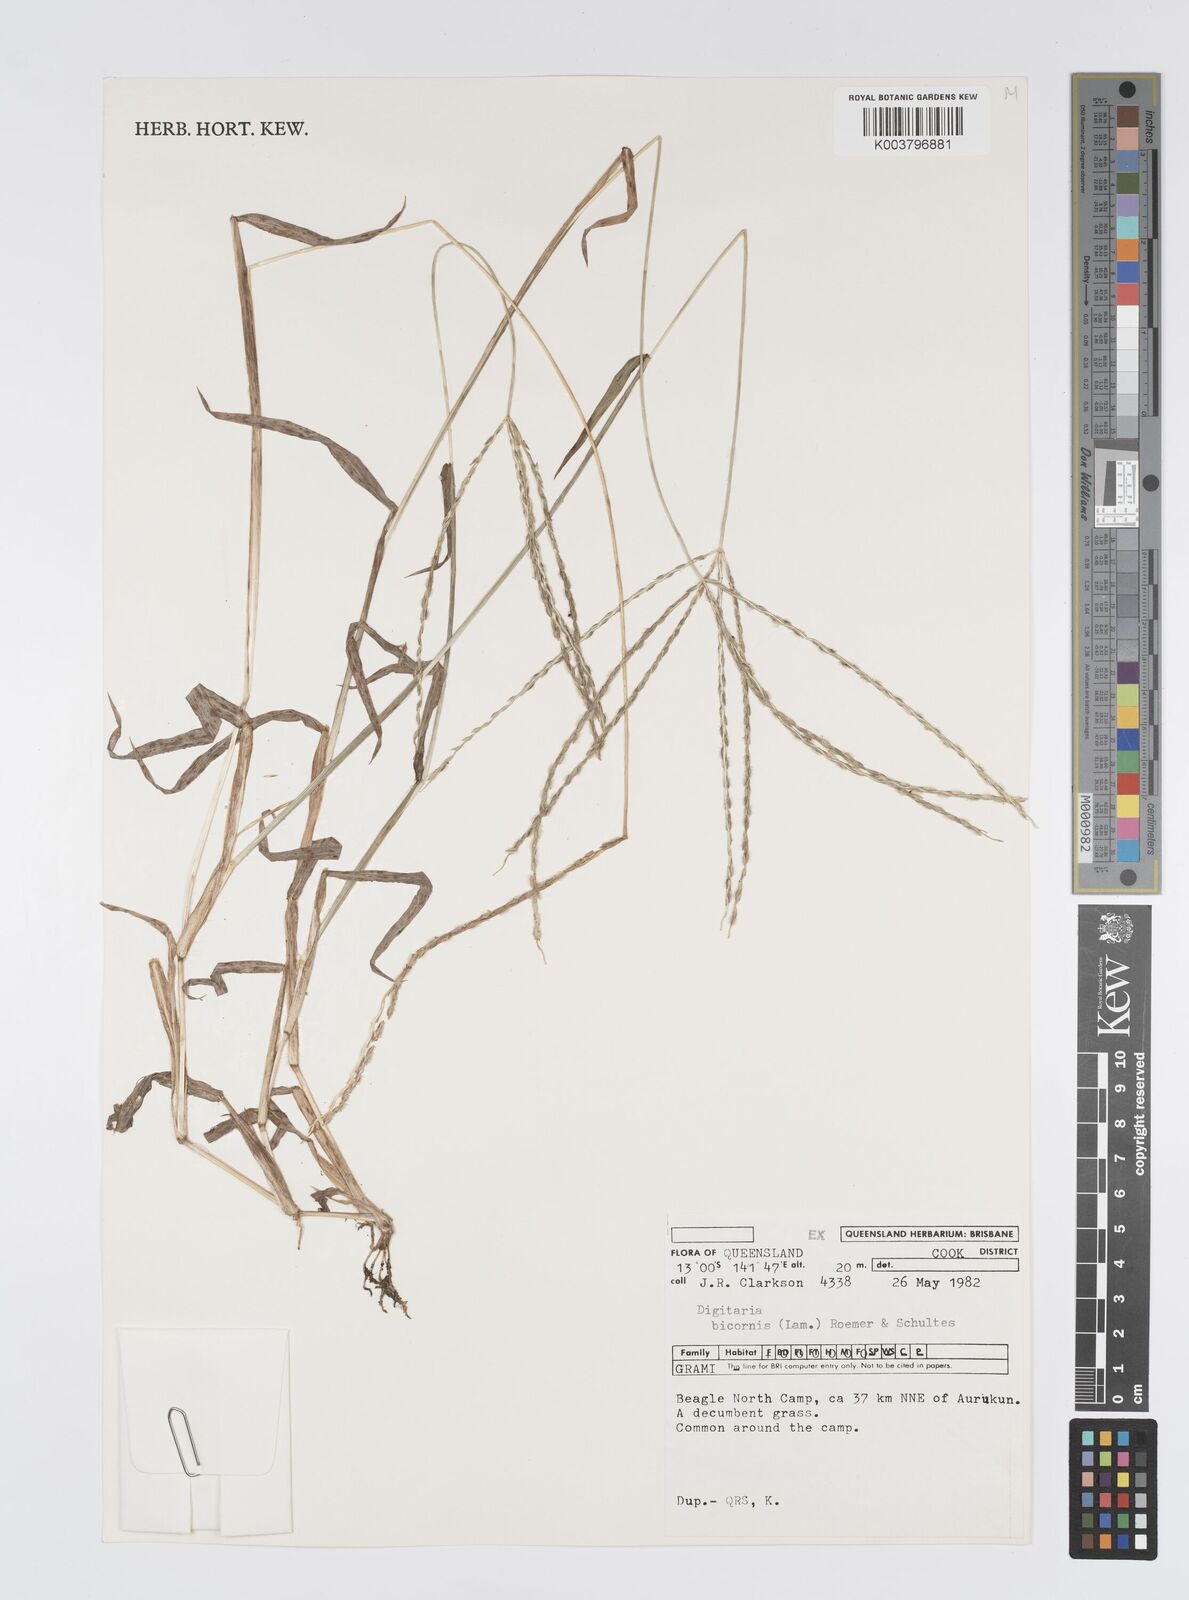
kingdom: Plantae
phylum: Tracheophyta
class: Liliopsida
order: Poales
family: Poaceae
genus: Digitaria
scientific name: Digitaria bicornis
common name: Asian crabgrass
